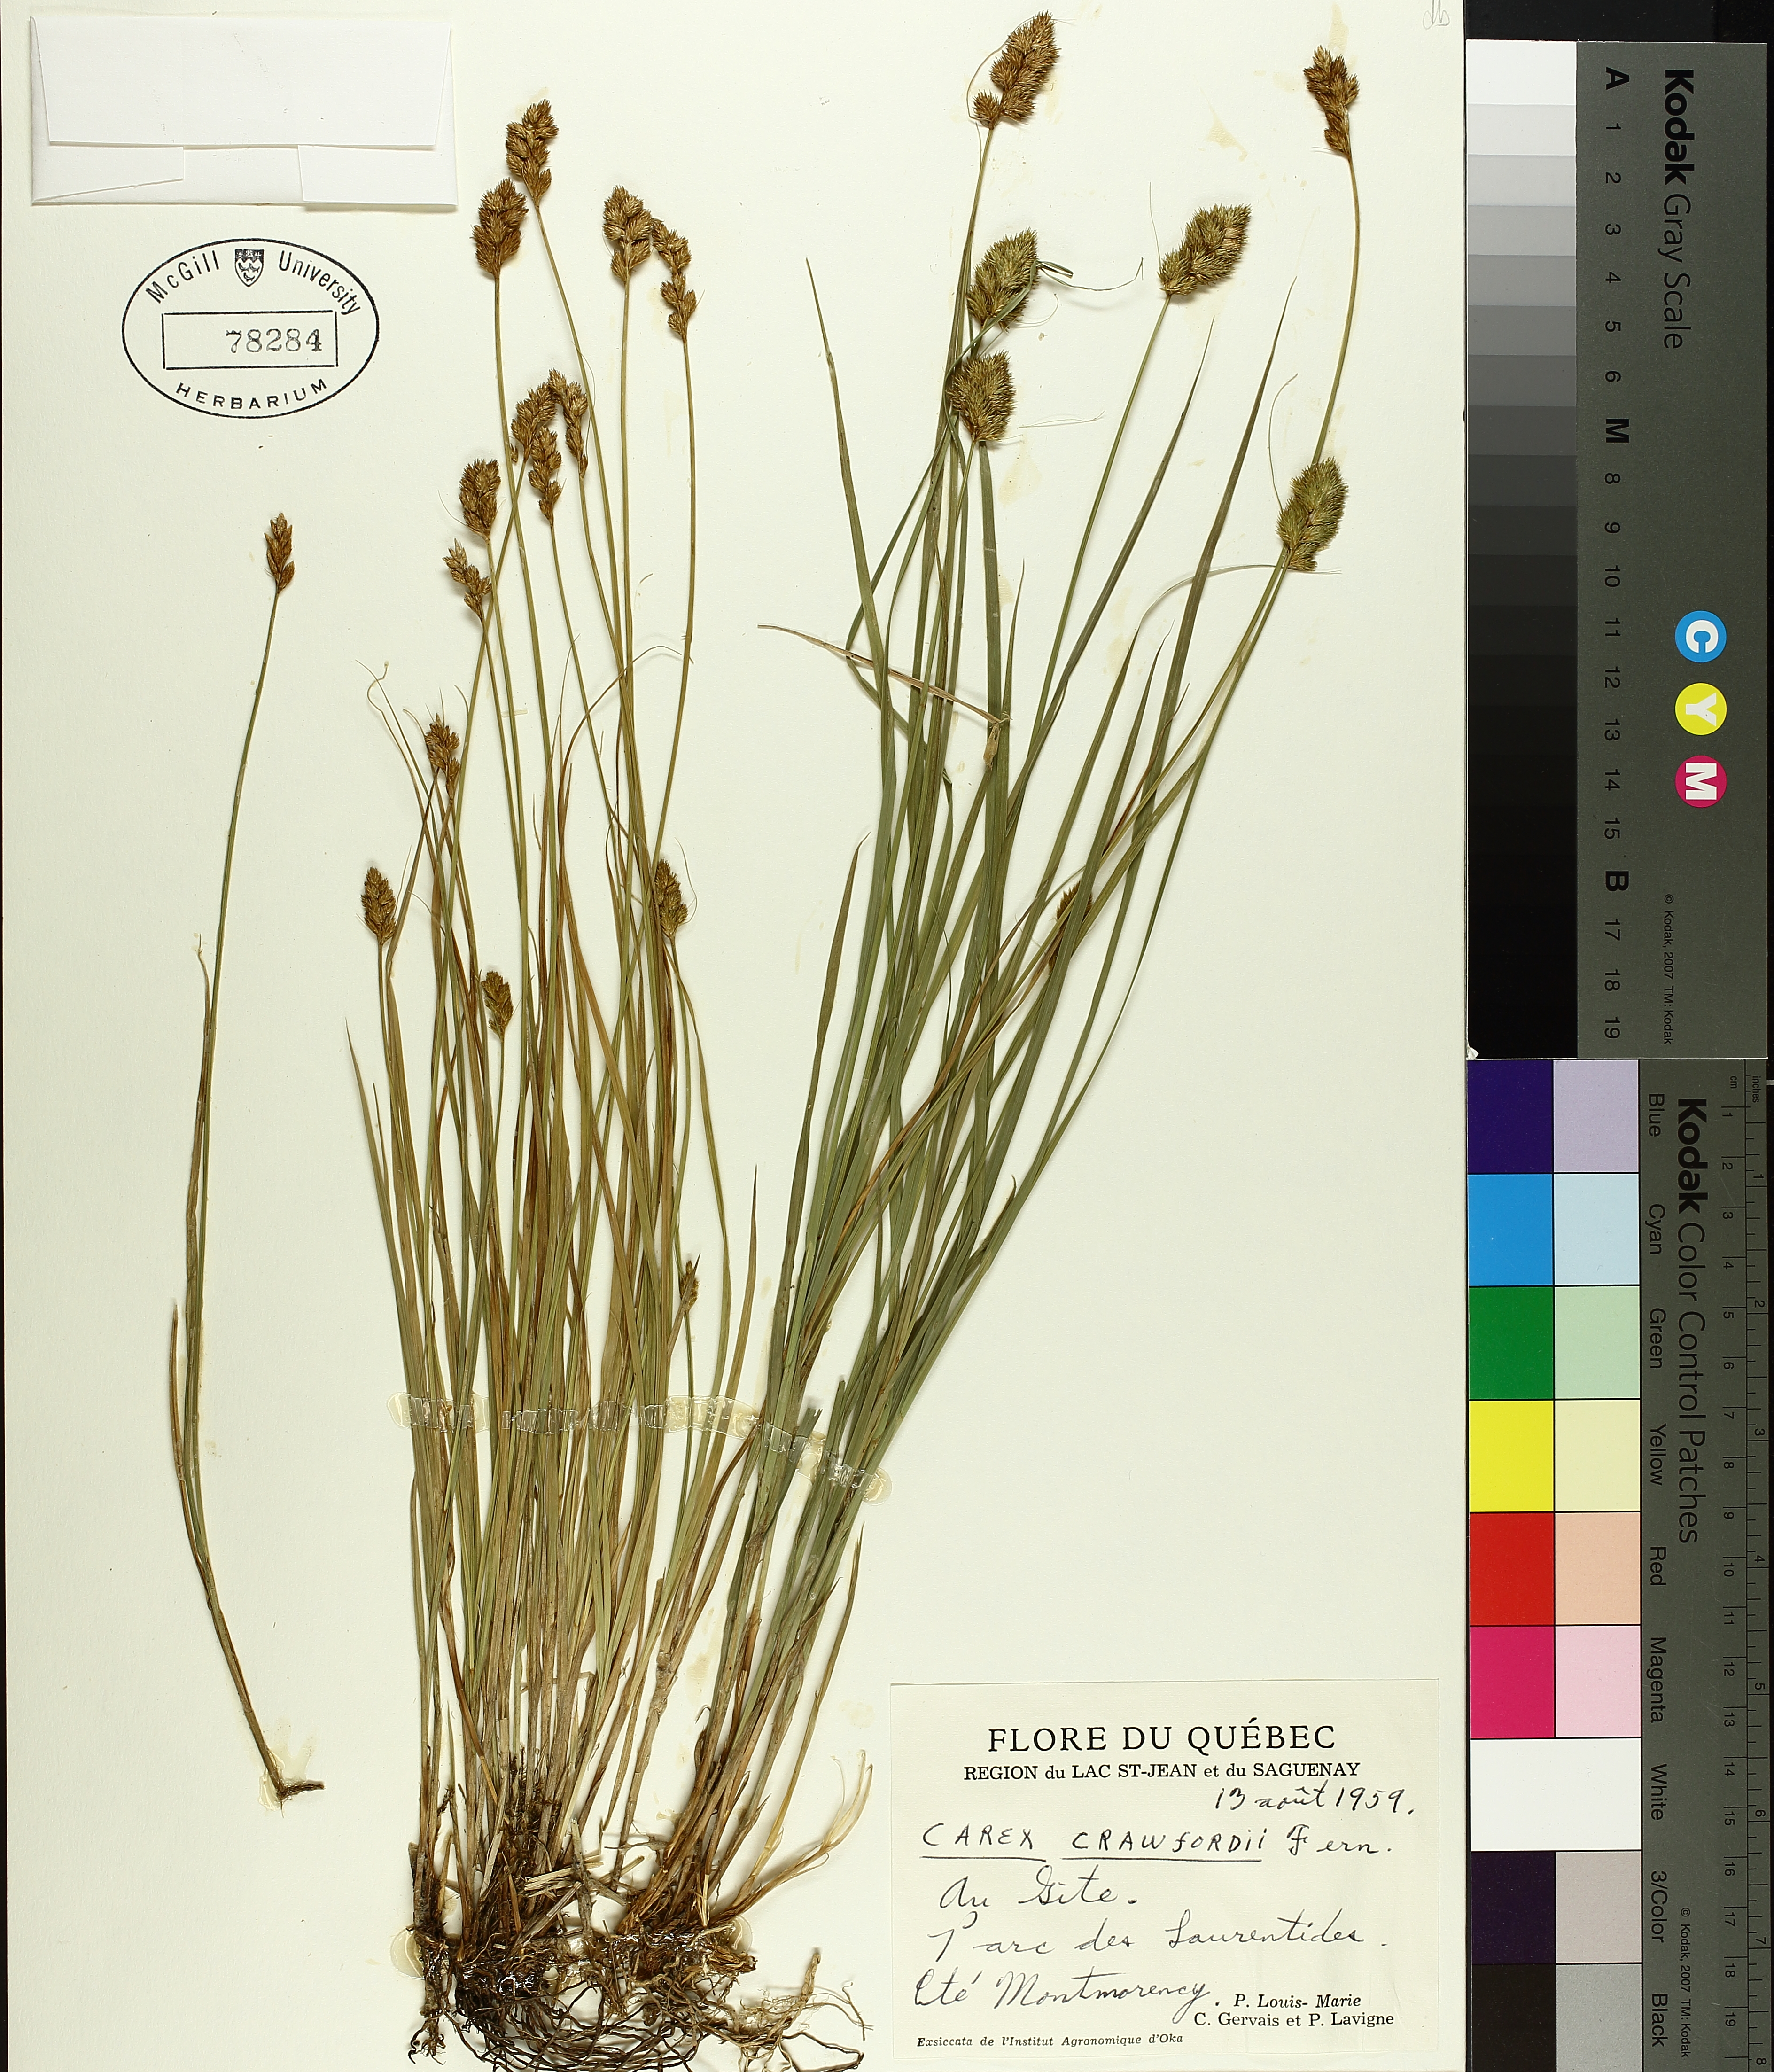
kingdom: Plantae
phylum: Tracheophyta
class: Liliopsida
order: Poales
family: Cyperaceae
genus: Carex
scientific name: Carex crawfordii
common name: Crawford's sedge
